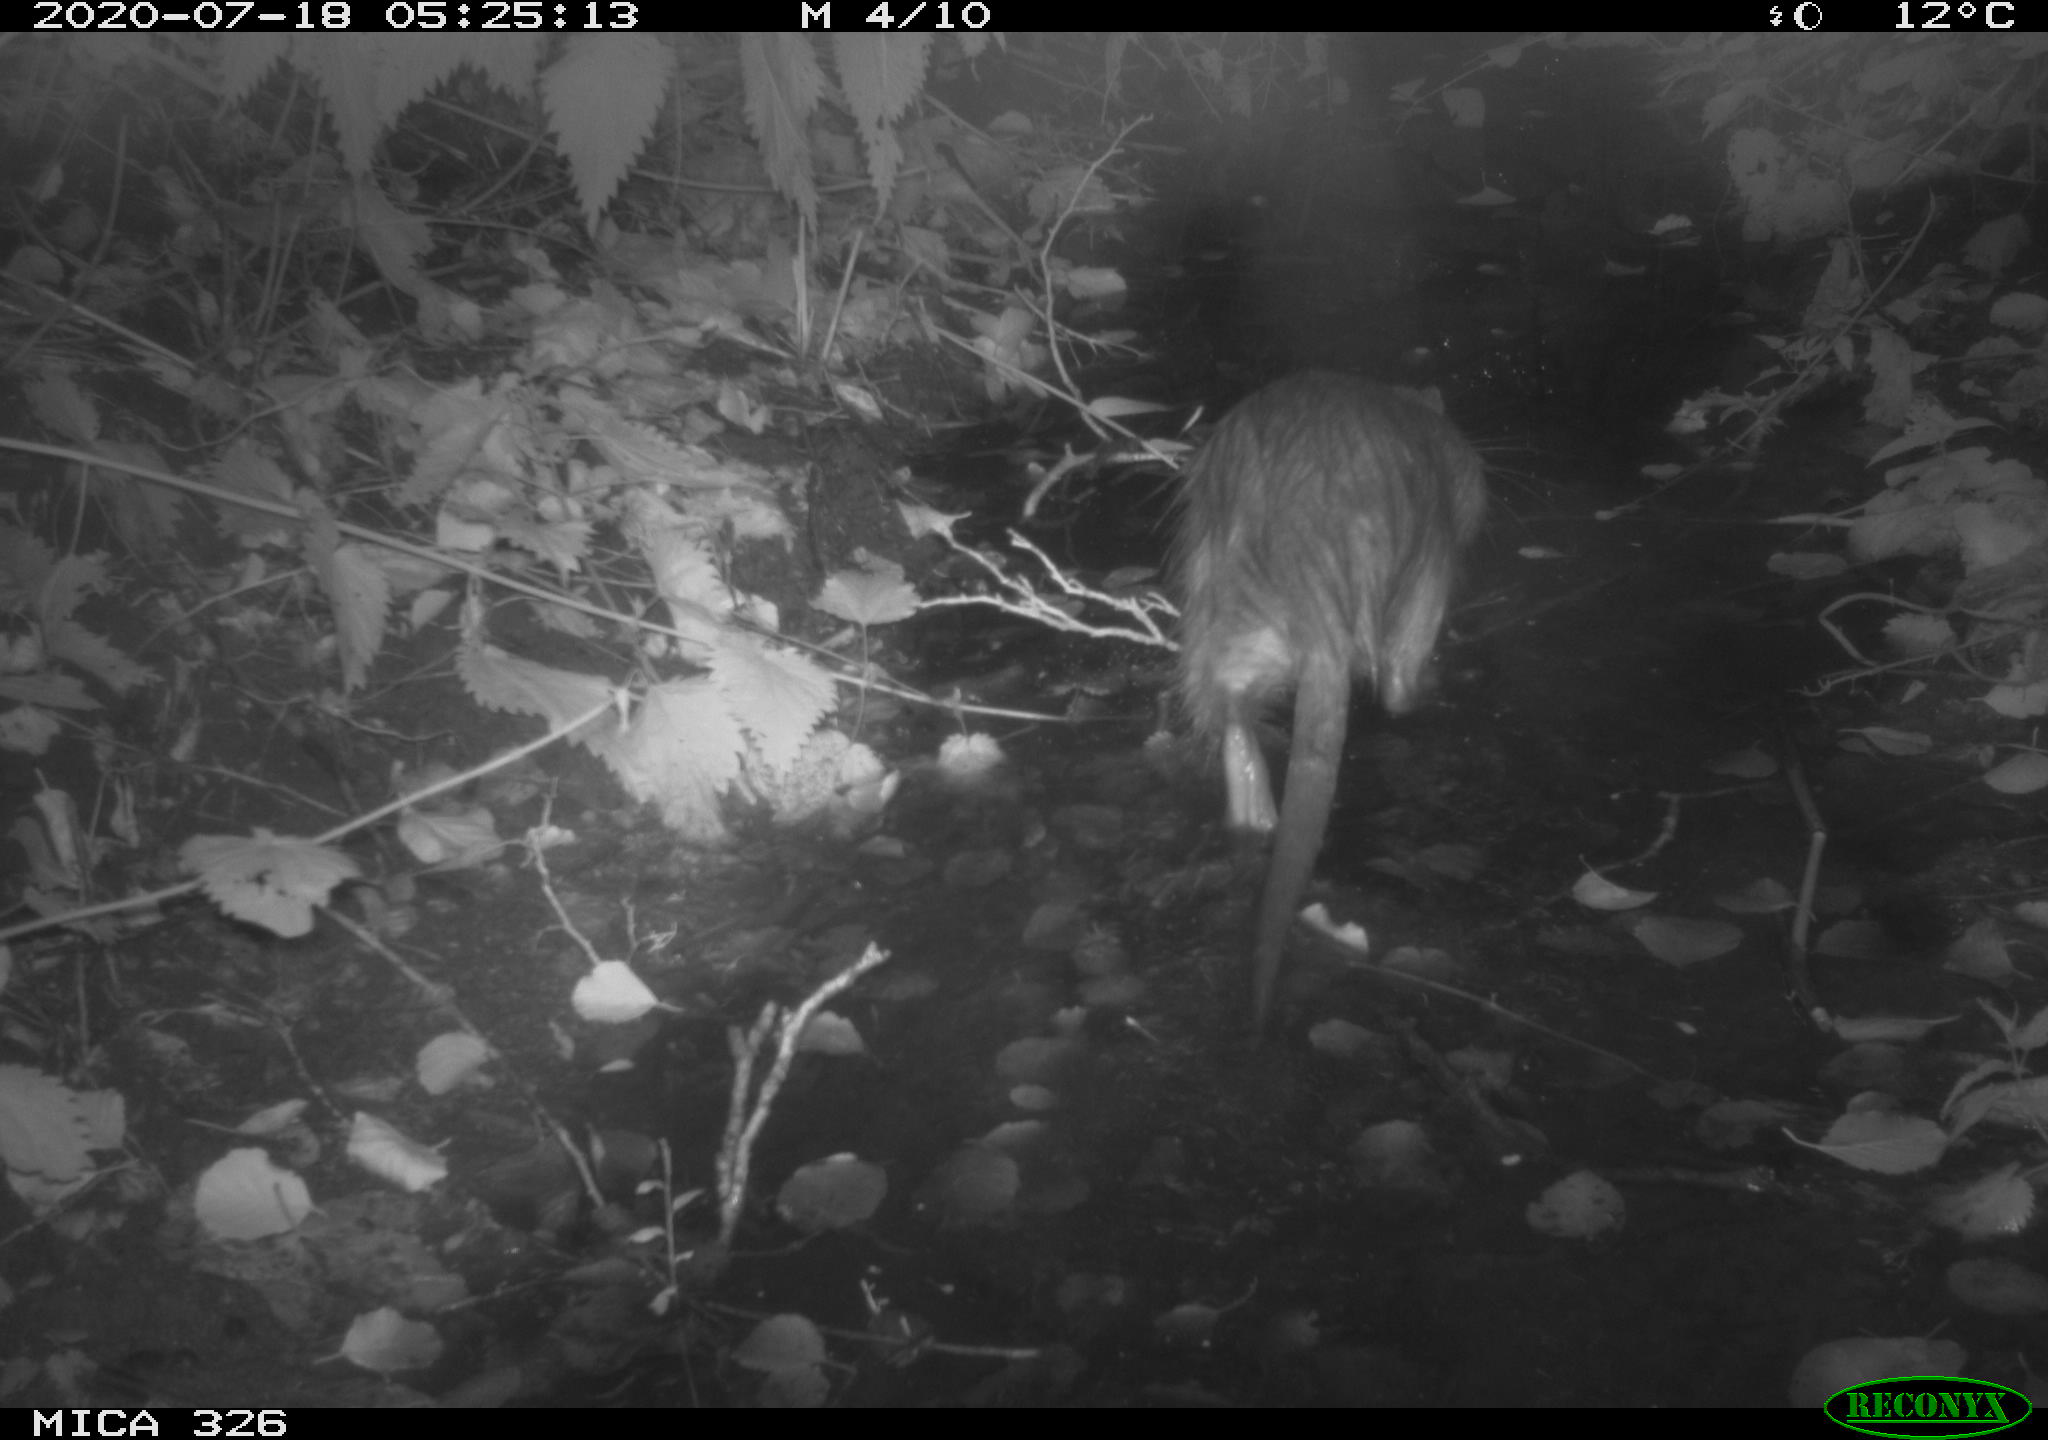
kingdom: Animalia
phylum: Chordata
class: Mammalia
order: Rodentia
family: Myocastoridae
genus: Myocastor
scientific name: Myocastor coypus
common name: Coypu
